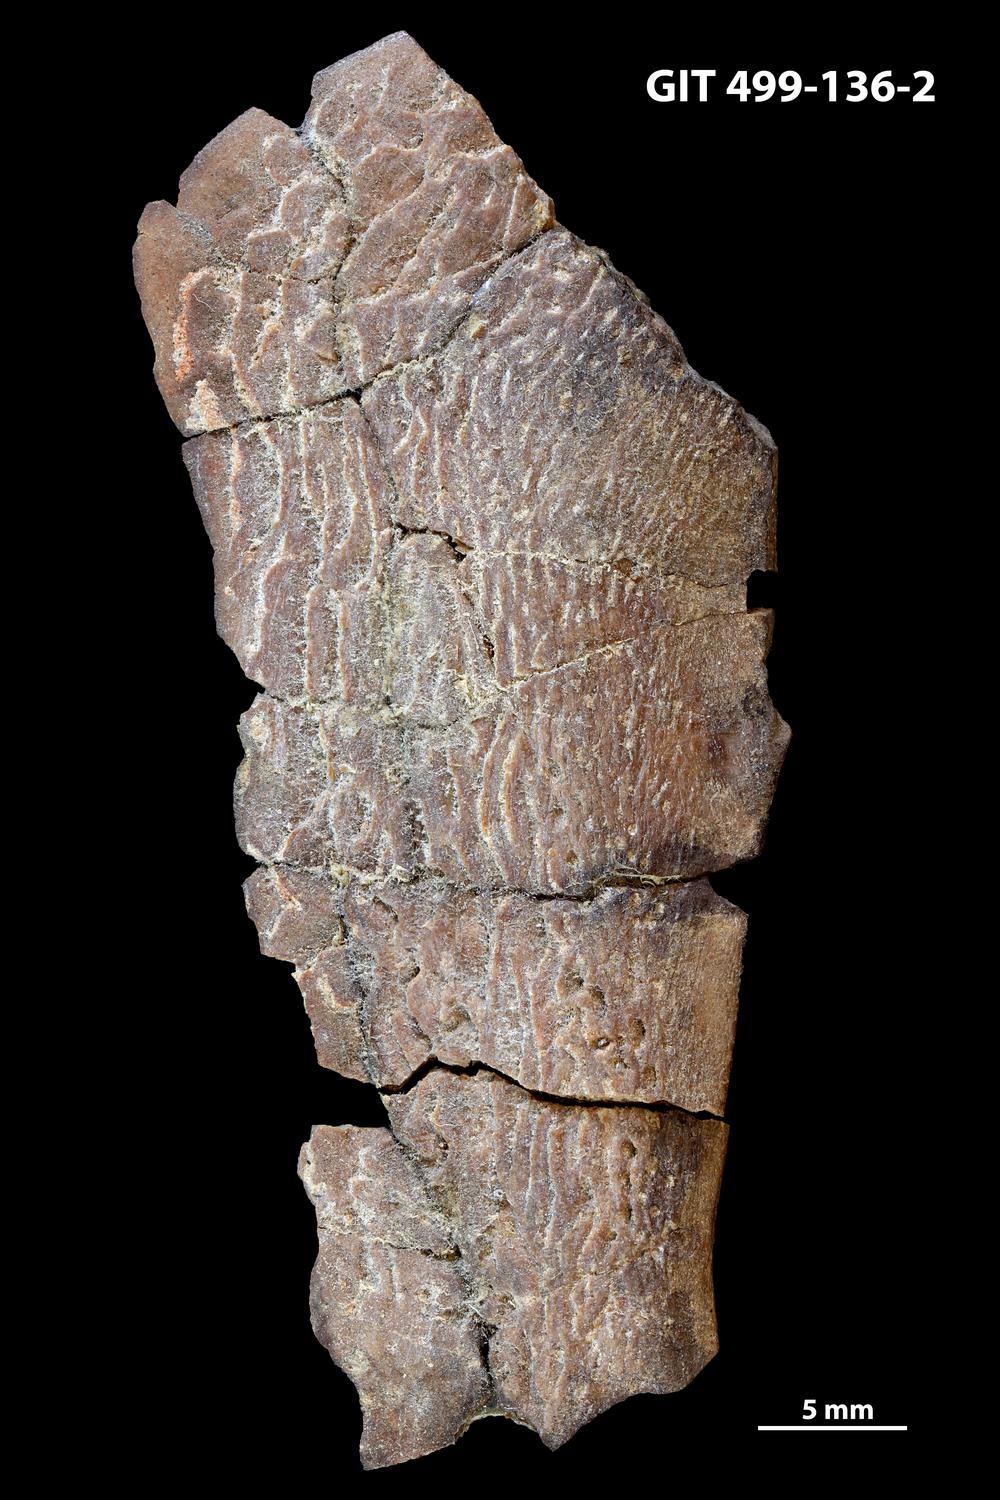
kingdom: Animalia
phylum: Chordata
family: Holoptychiidae
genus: Glyptolepis
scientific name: Glyptolepis
